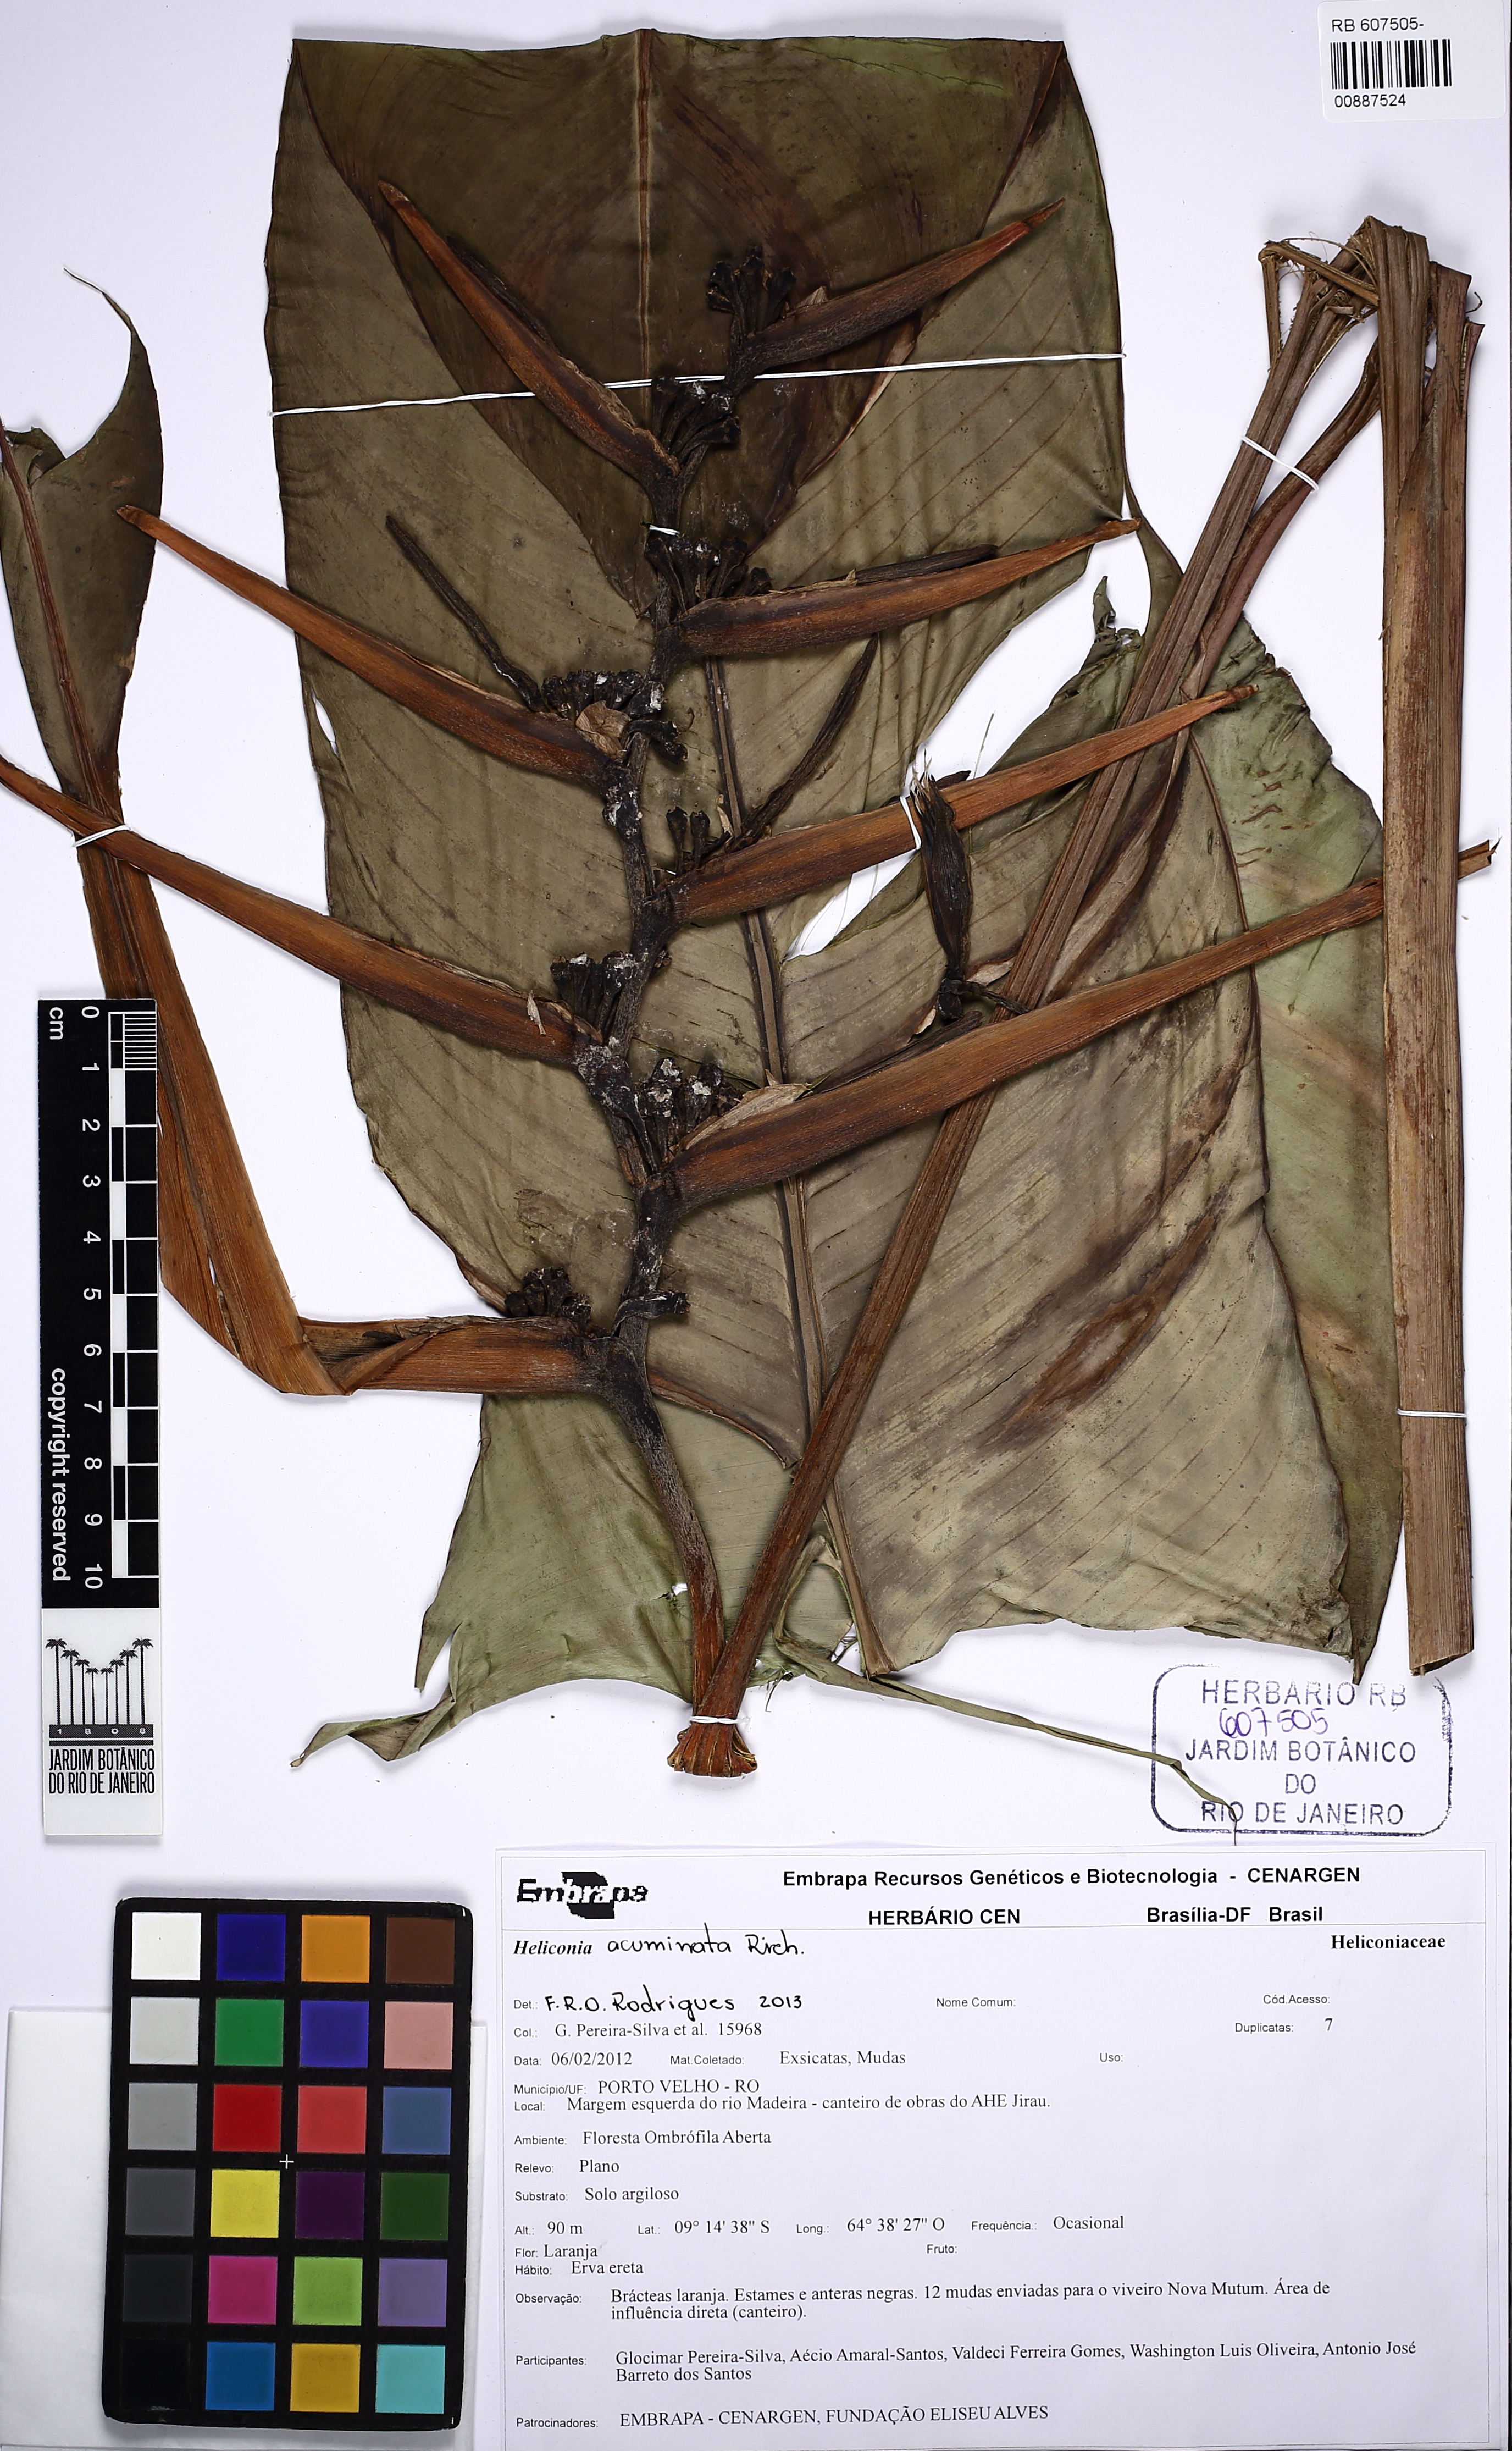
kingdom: Plantae
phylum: Tracheophyta
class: Liliopsida
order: Zingiberales
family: Heliconiaceae
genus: Heliconia
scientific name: Heliconia acuminata
